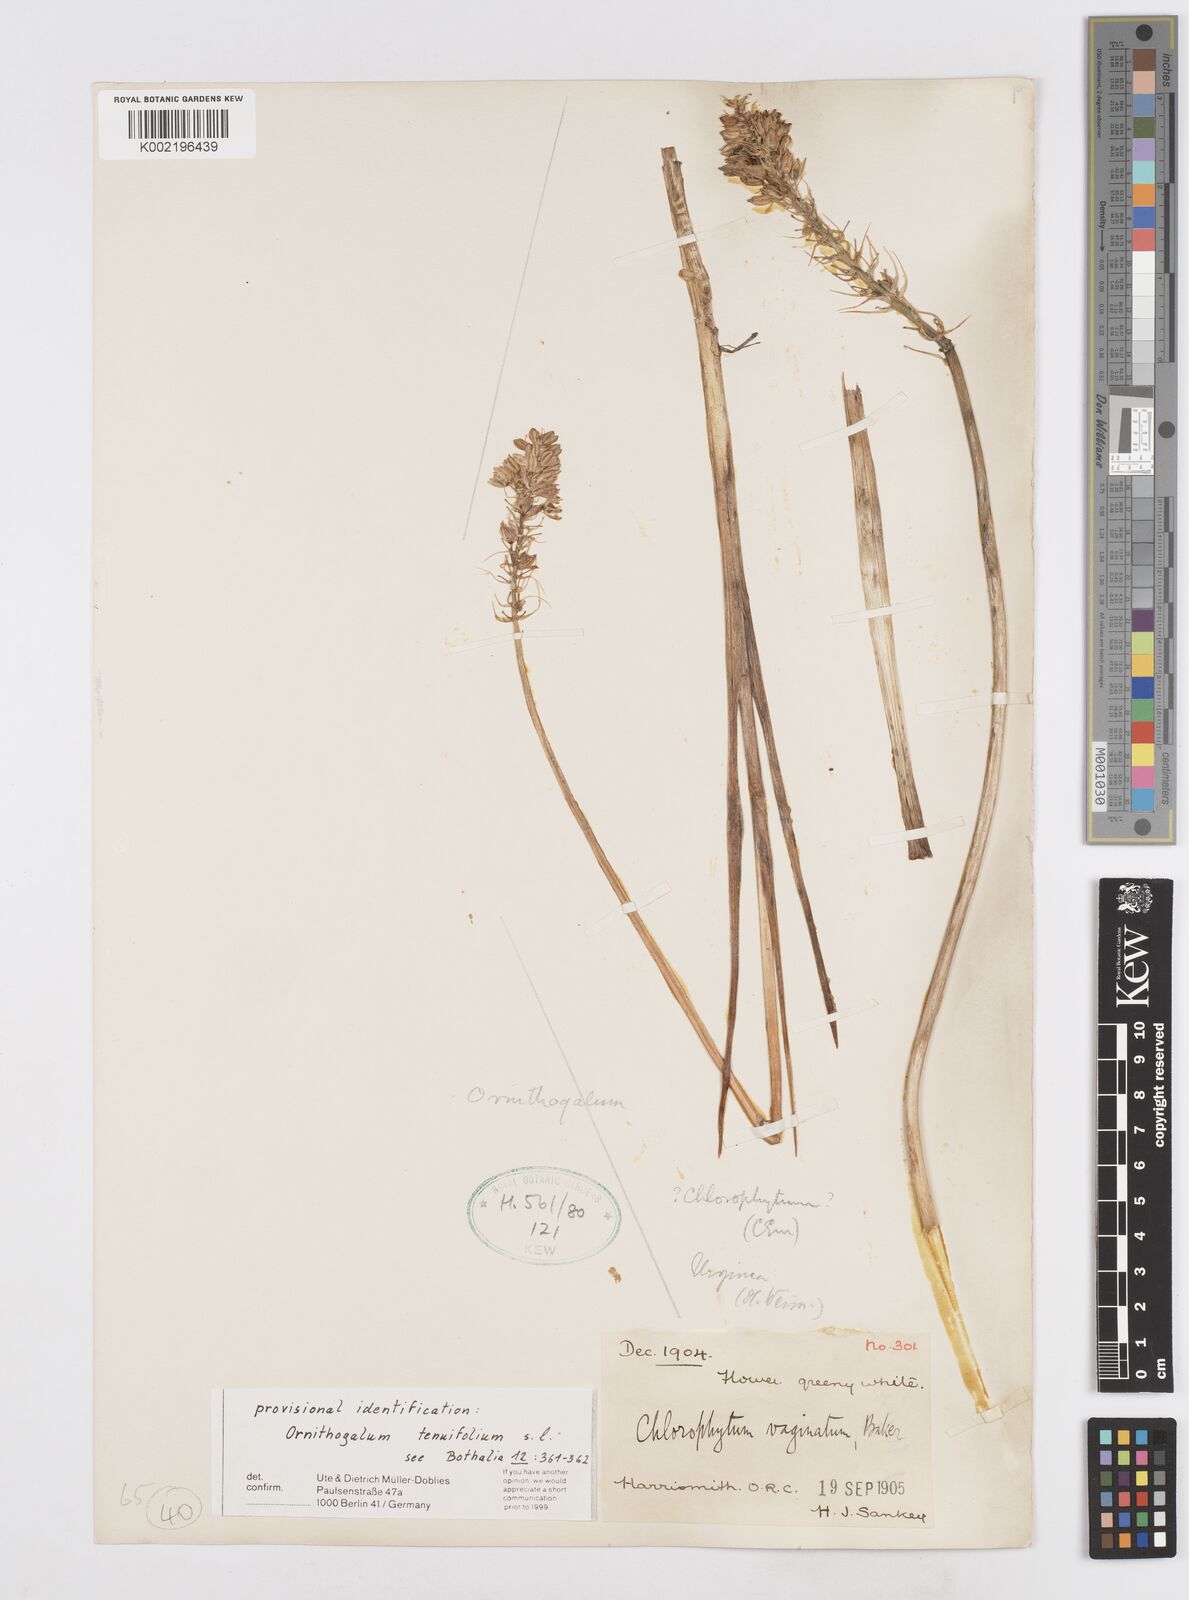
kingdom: Plantae
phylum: Tracheophyta
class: Liliopsida
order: Asparagales
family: Asparagaceae
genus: Albuca
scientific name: Albuca virens
